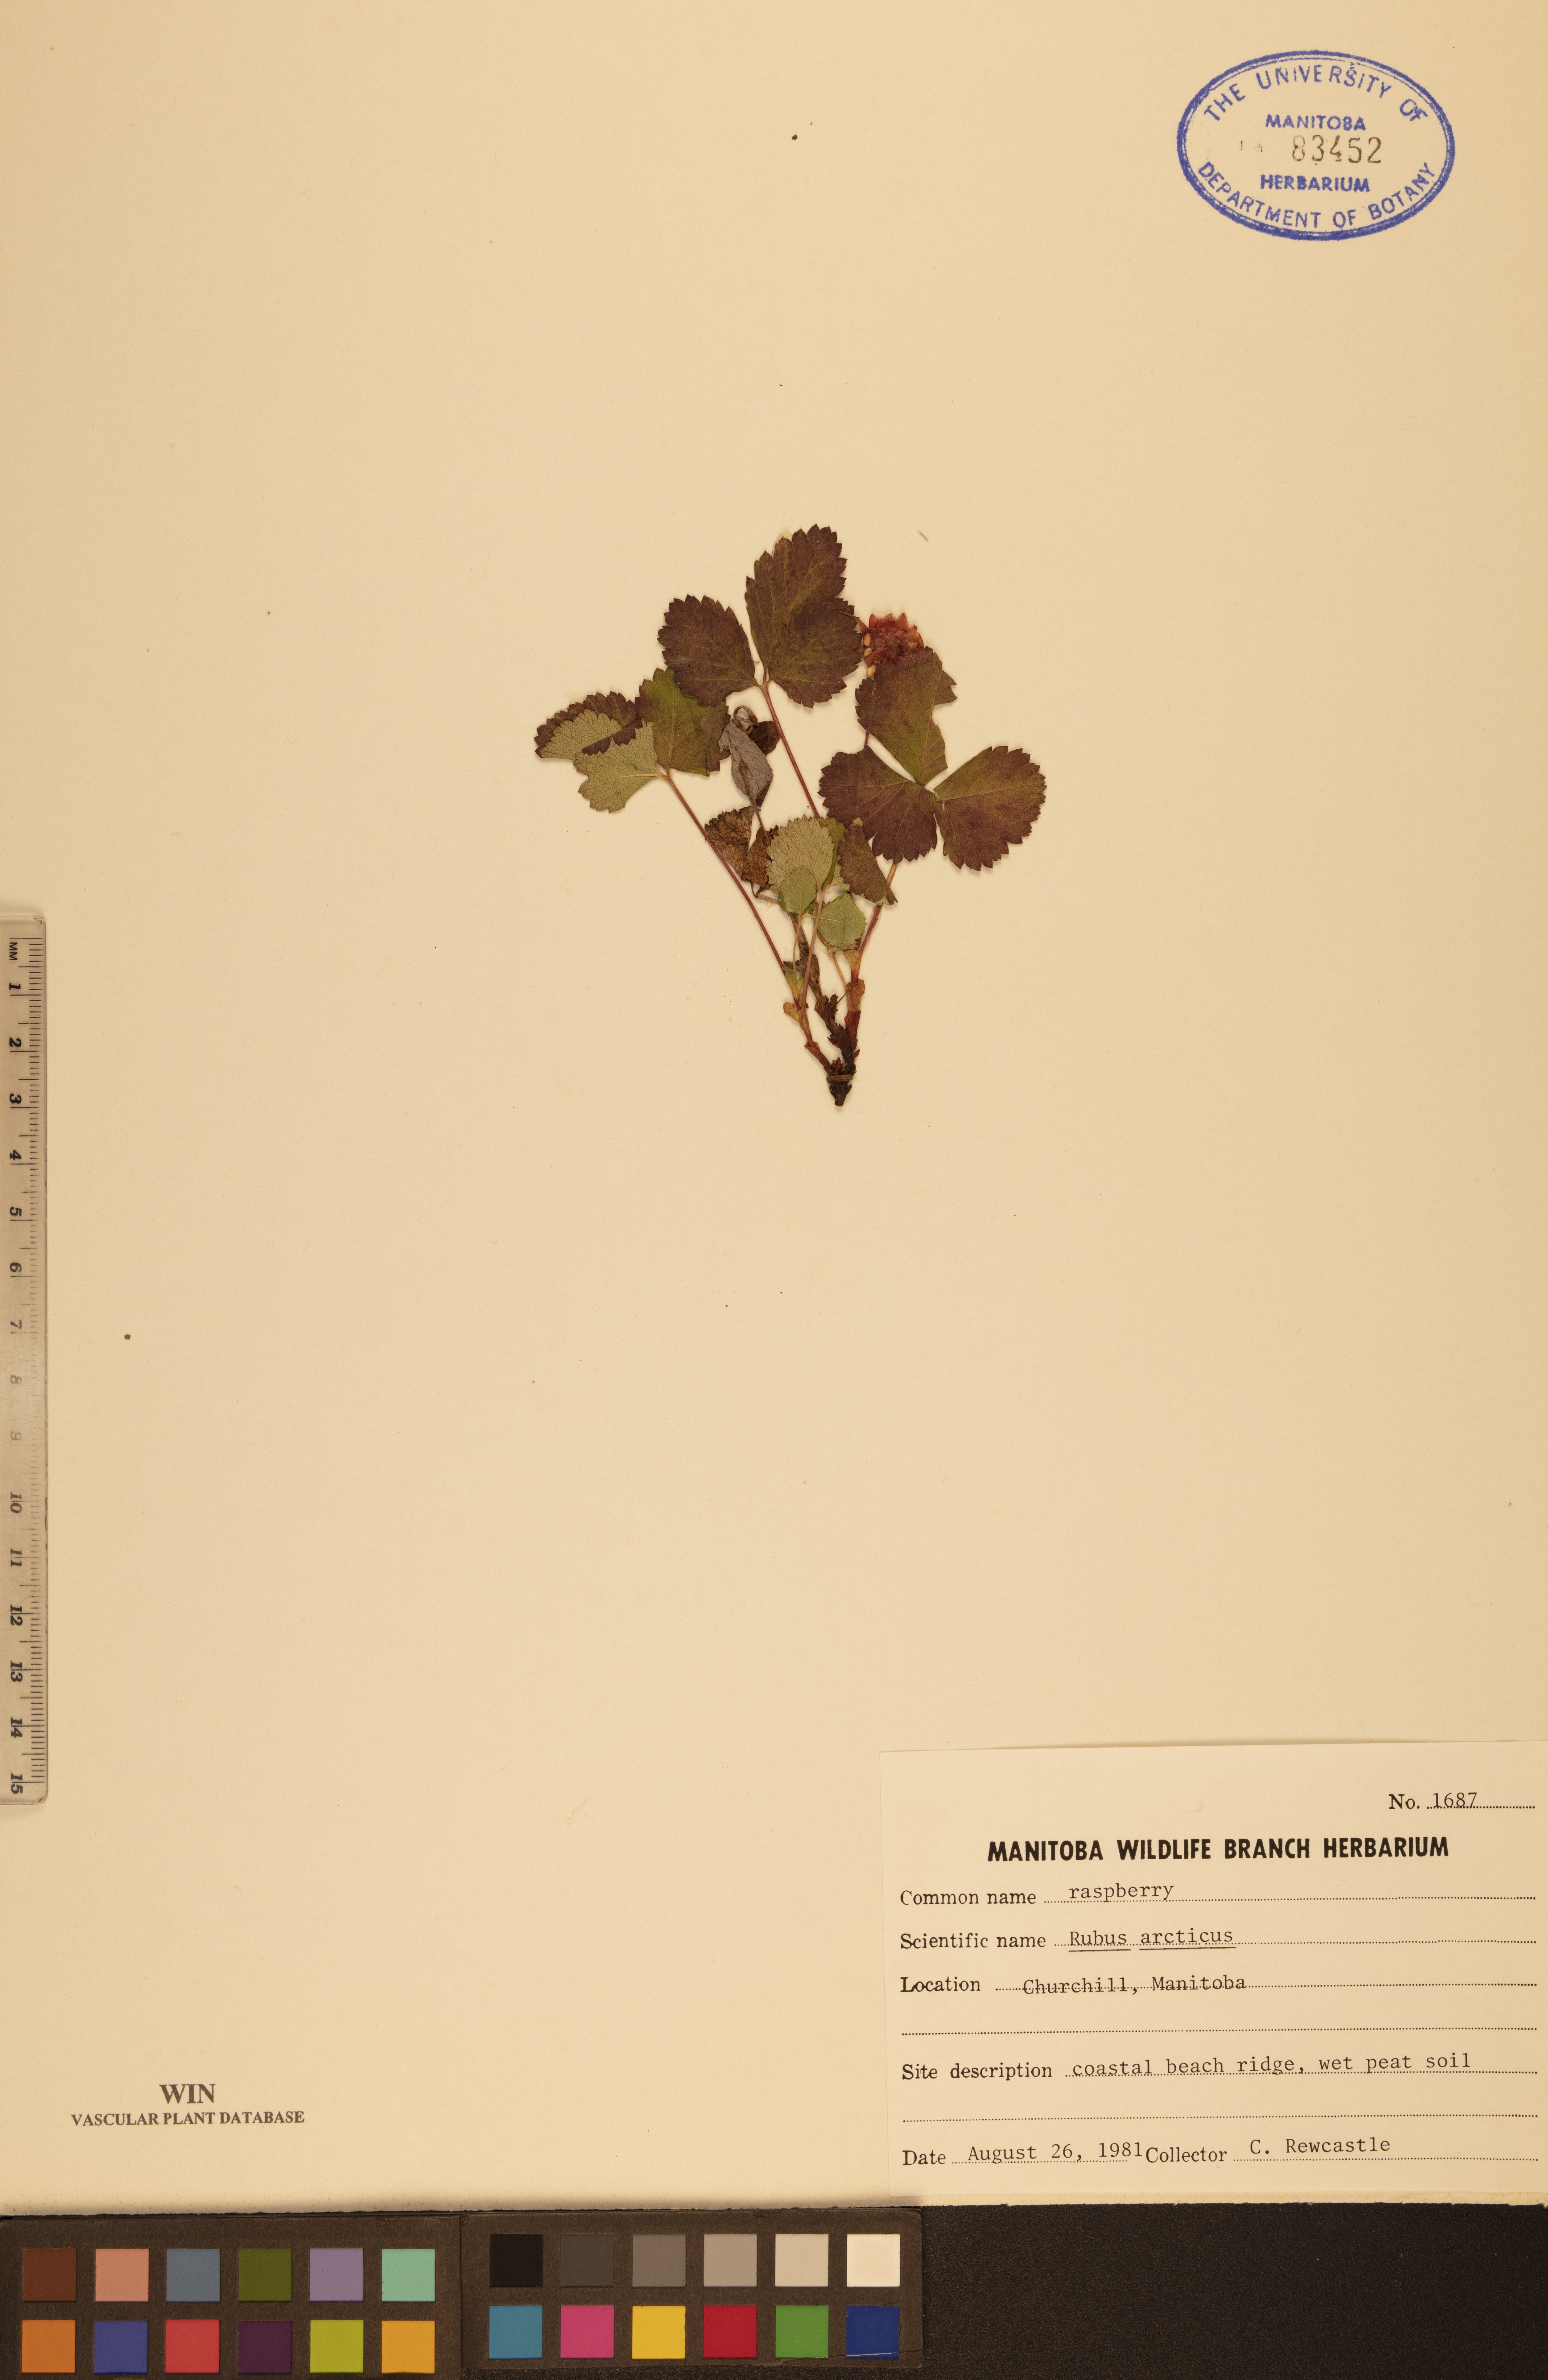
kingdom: Plantae
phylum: Tracheophyta
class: Magnoliopsida
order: Rosales
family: Rosaceae
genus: Rubus
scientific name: Rubus arcticus
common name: Arctic bramble
